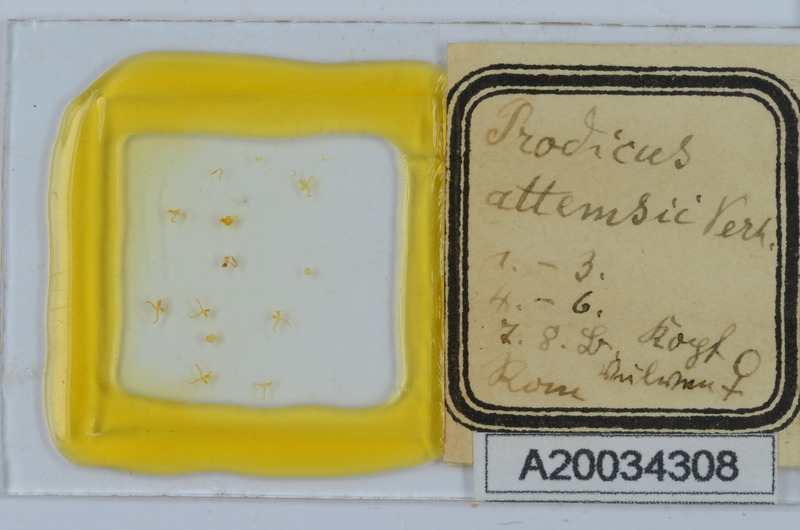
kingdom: Animalia
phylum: Arthropoda
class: Diplopoda
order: Chordeumatida
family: Anthroleucosomatidae
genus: Anamastigona
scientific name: Anamastigona pulchella
